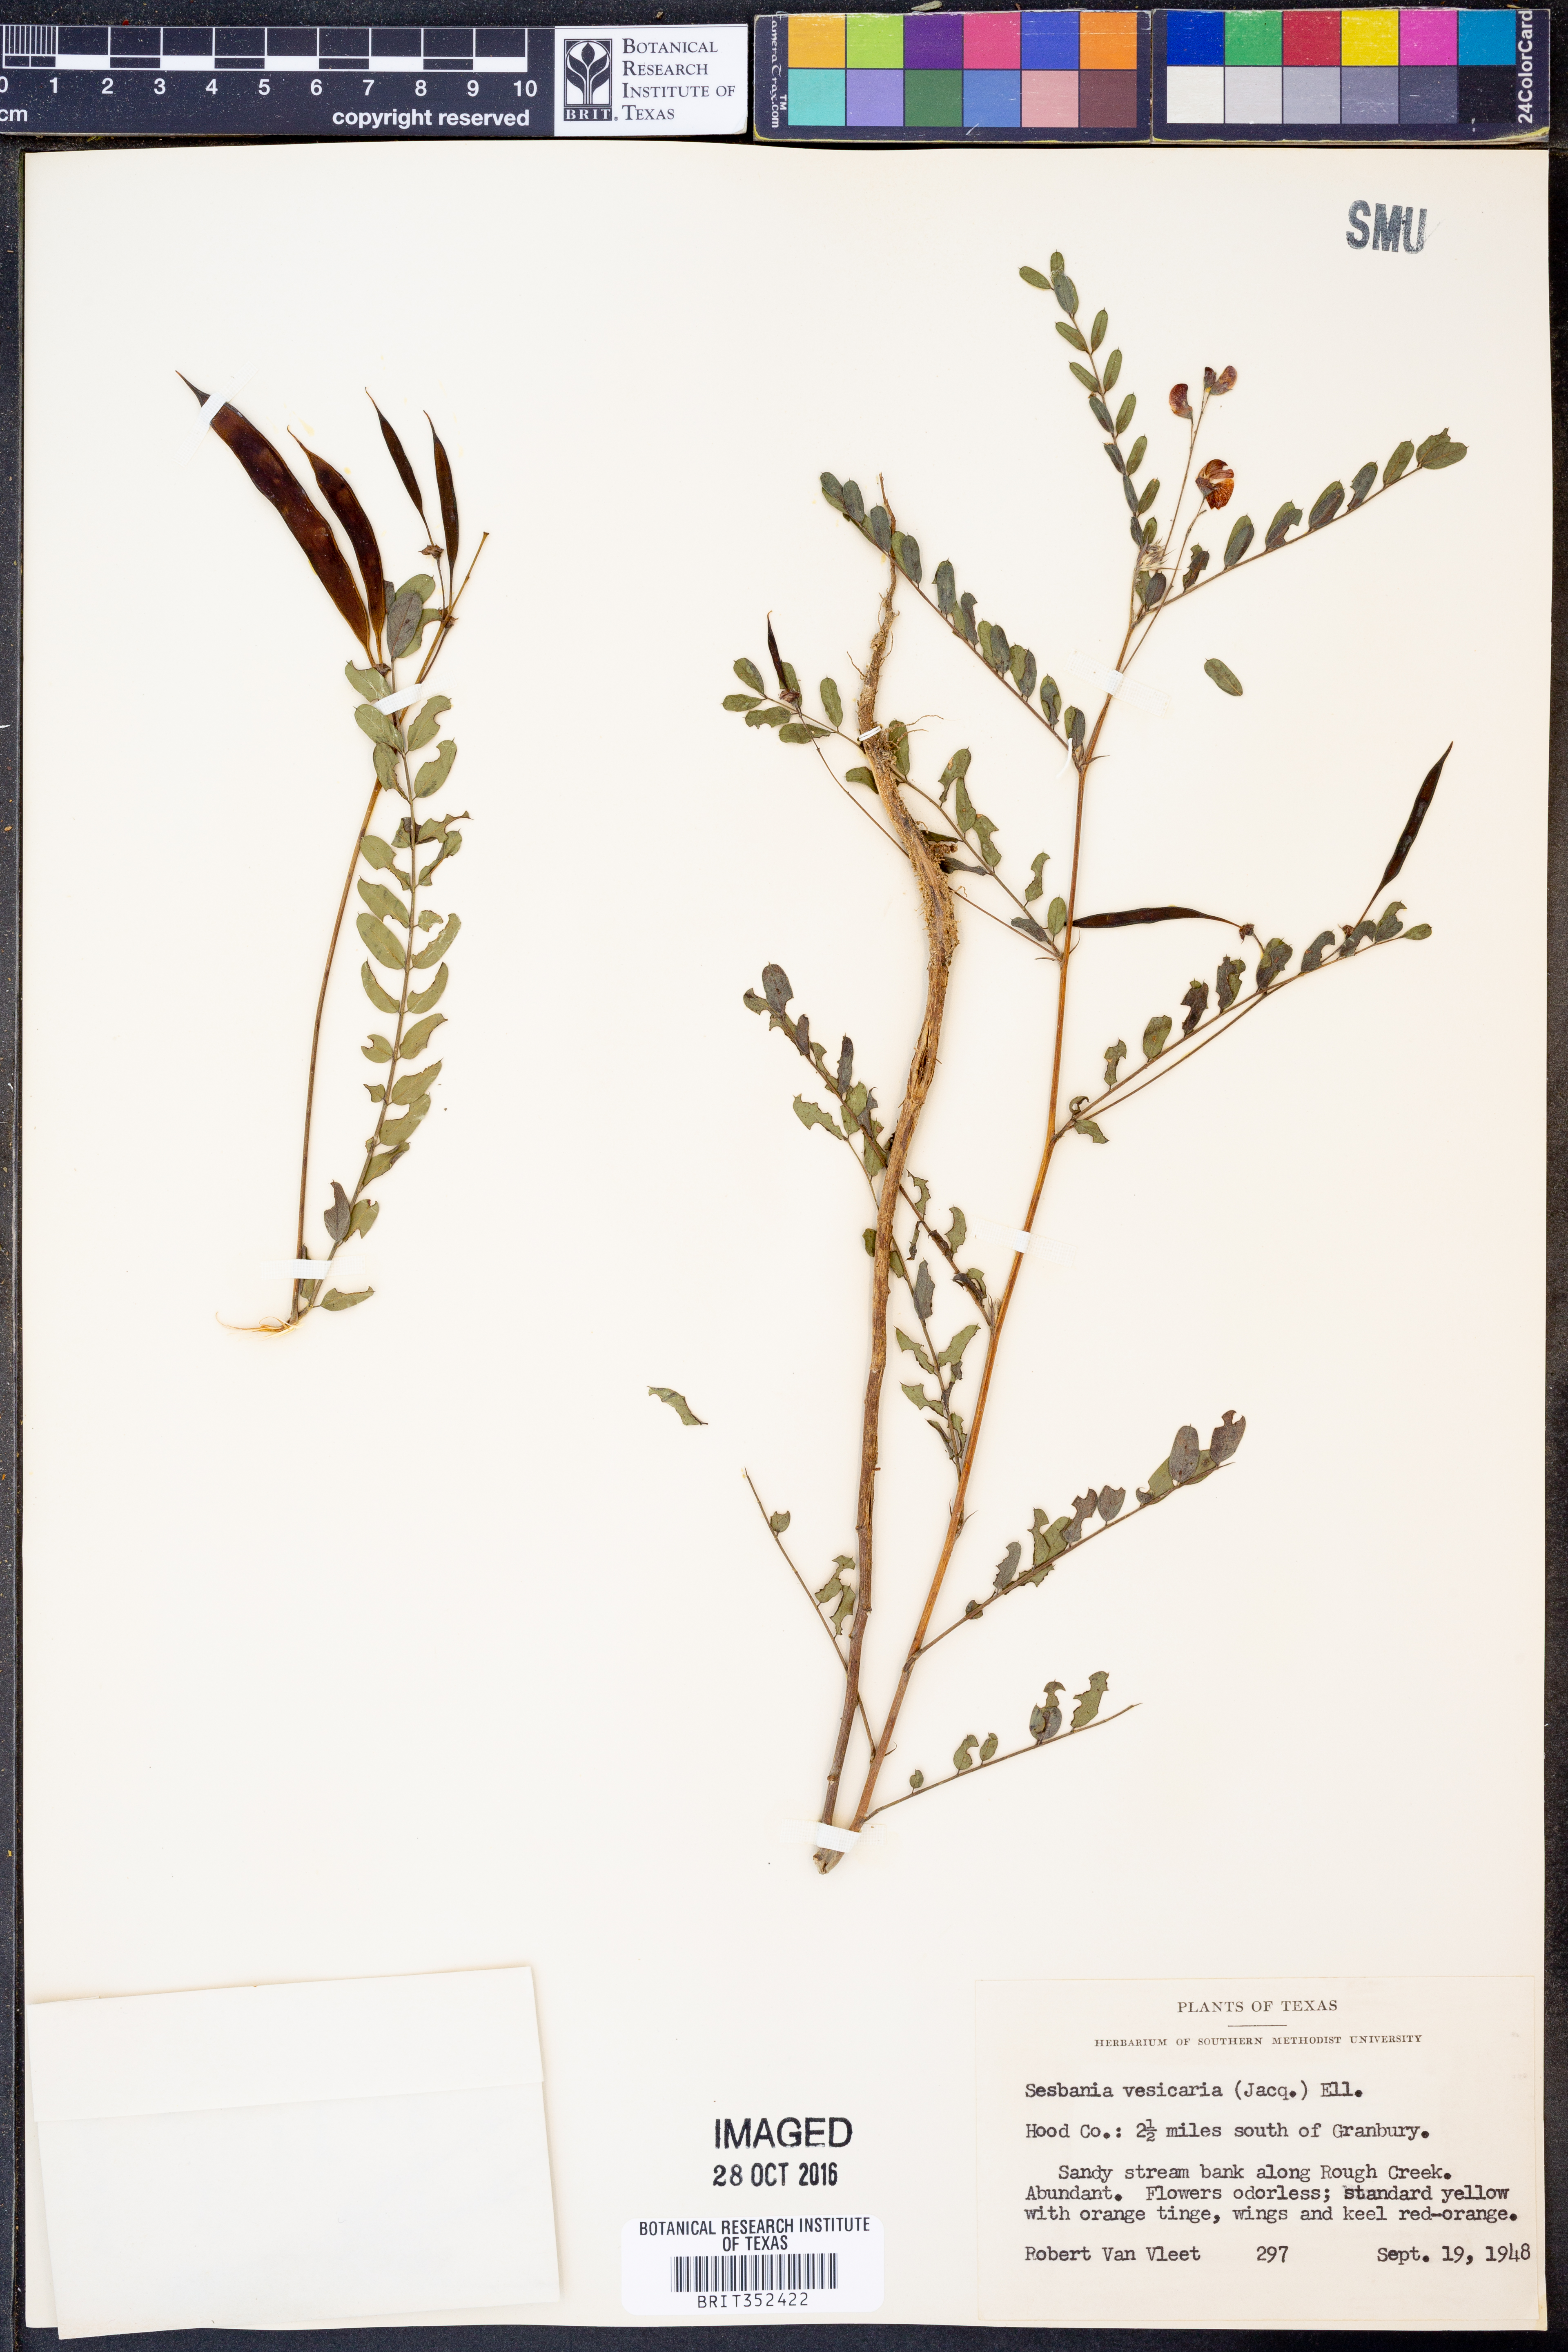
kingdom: Plantae
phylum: Tracheophyta
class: Magnoliopsida
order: Fabales
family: Fabaceae
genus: Sesbania
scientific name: Sesbania vesicaria
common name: Bagpod
